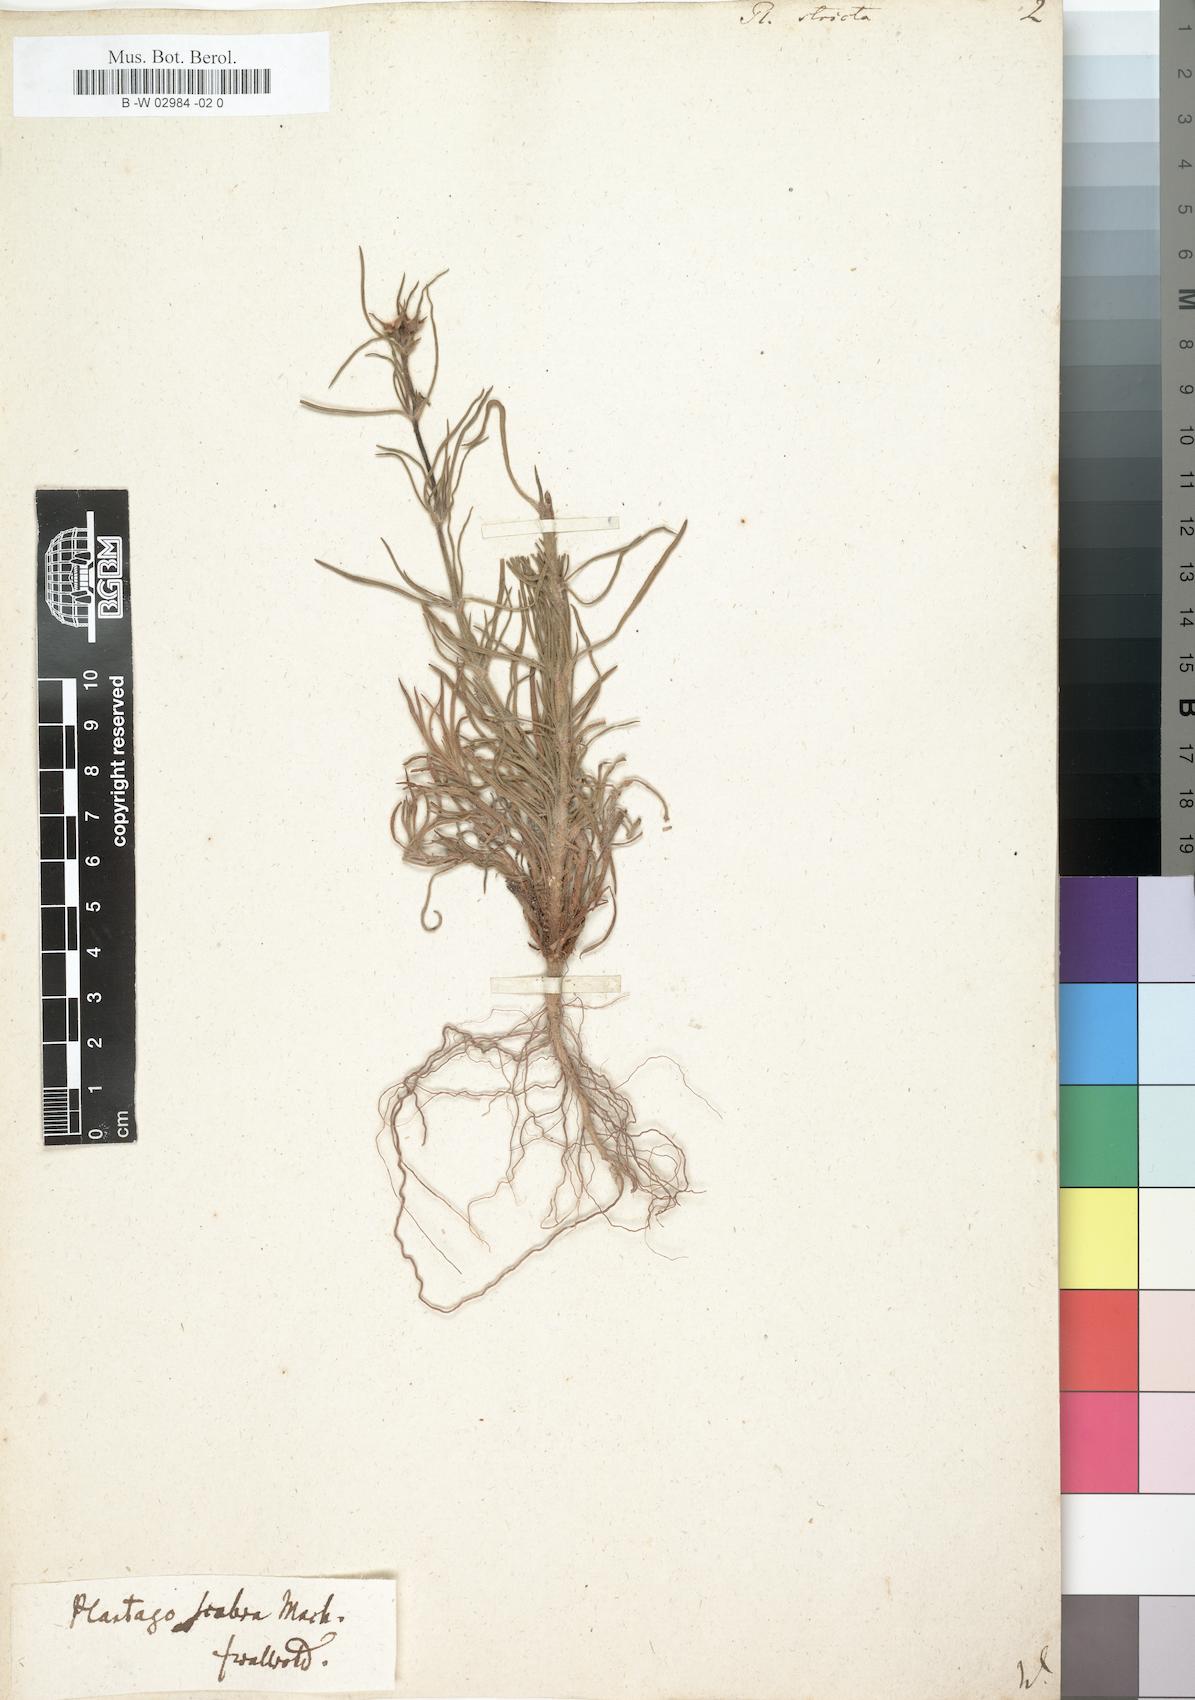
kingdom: Plantae
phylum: Tracheophyta
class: Magnoliopsida
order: Lamiales
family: Plantaginaceae
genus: Plantago
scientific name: Plantago afra
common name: Glandular plantain
